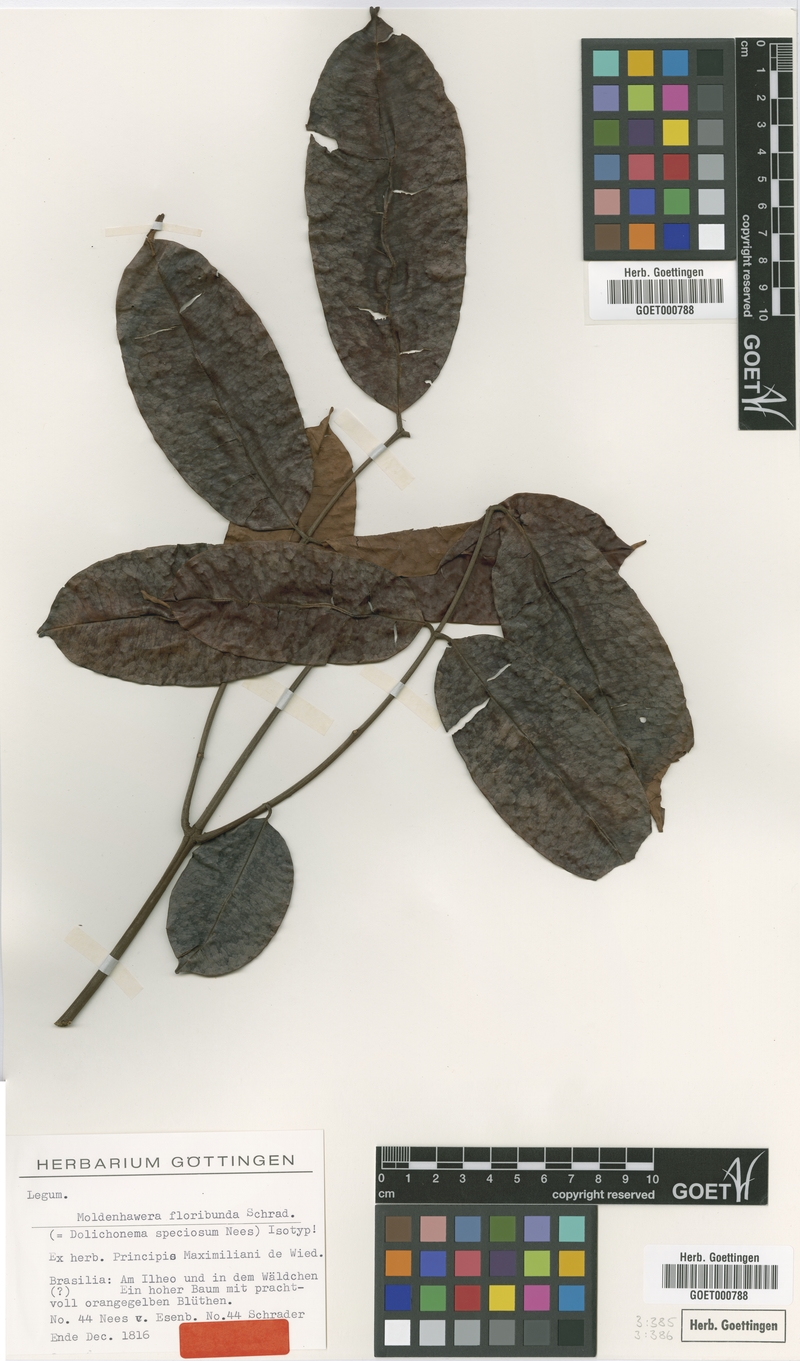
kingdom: Plantae
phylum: Tracheophyta
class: Magnoliopsida
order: Fabales
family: Fabaceae
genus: Moldenhawera
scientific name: Moldenhawera floribunda
